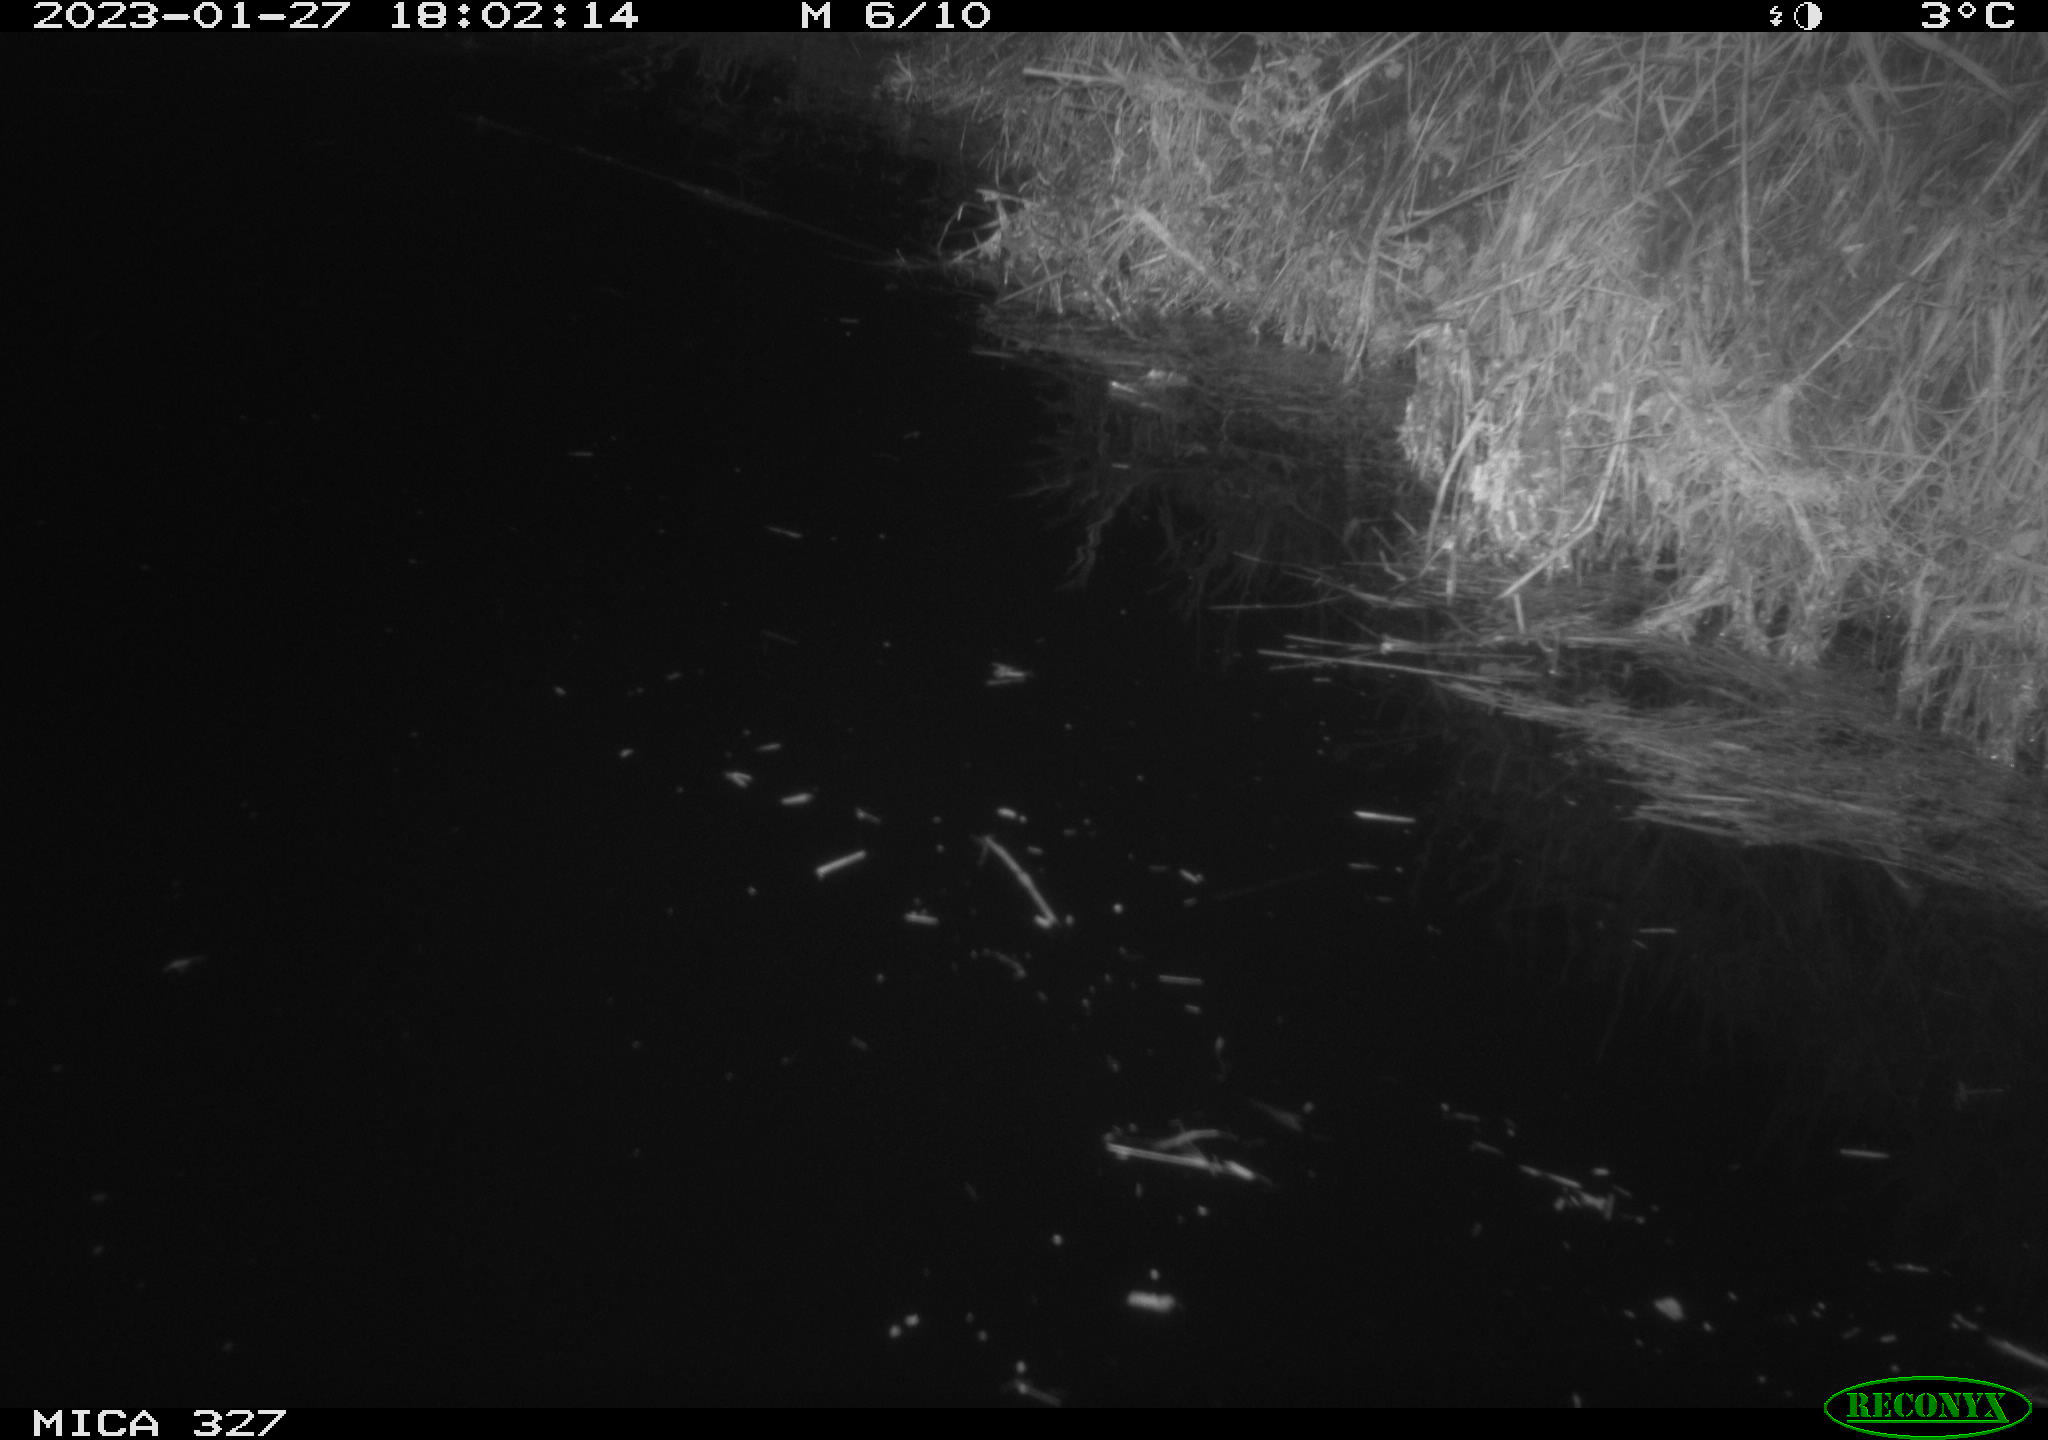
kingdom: Animalia
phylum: Chordata
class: Mammalia
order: Rodentia
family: Cricetidae
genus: Ondatra
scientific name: Ondatra zibethicus
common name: Muskrat
